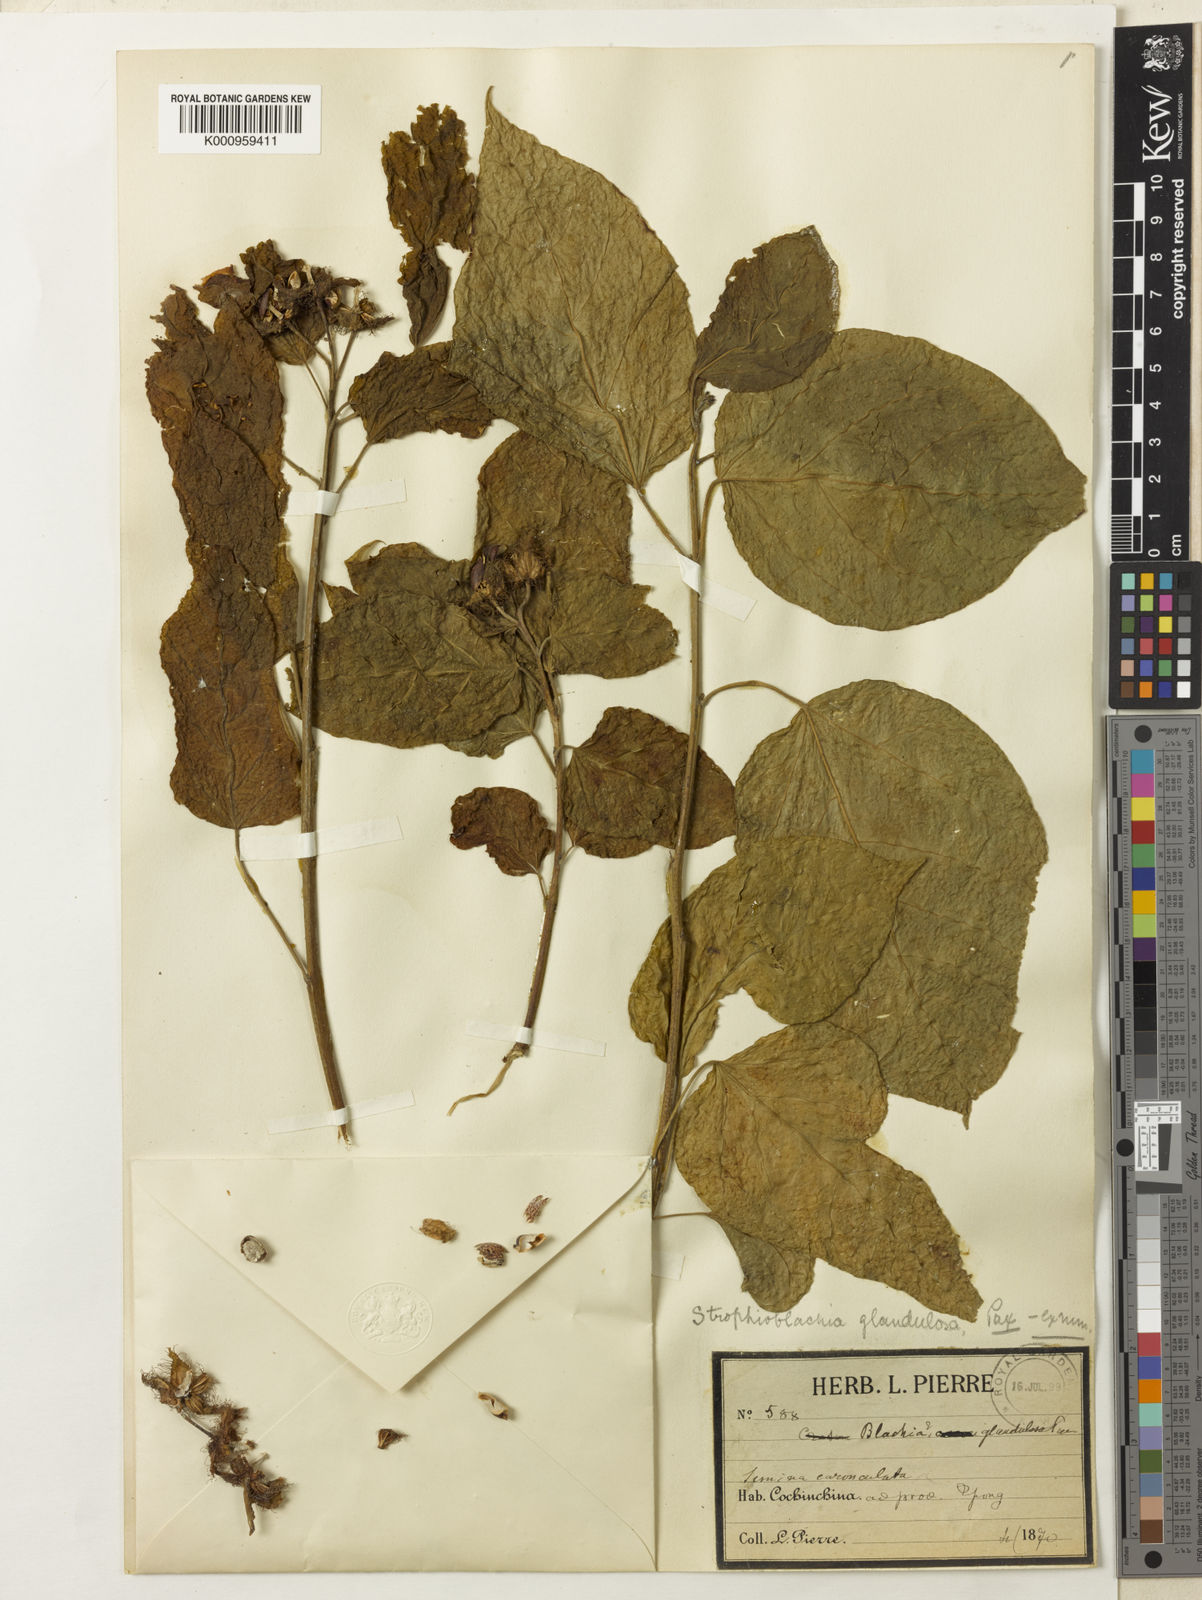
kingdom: Plantae
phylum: Tracheophyta
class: Magnoliopsida
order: Malpighiales
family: Euphorbiaceae
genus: Strophioblachia
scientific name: Strophioblachia fimbricalyx
